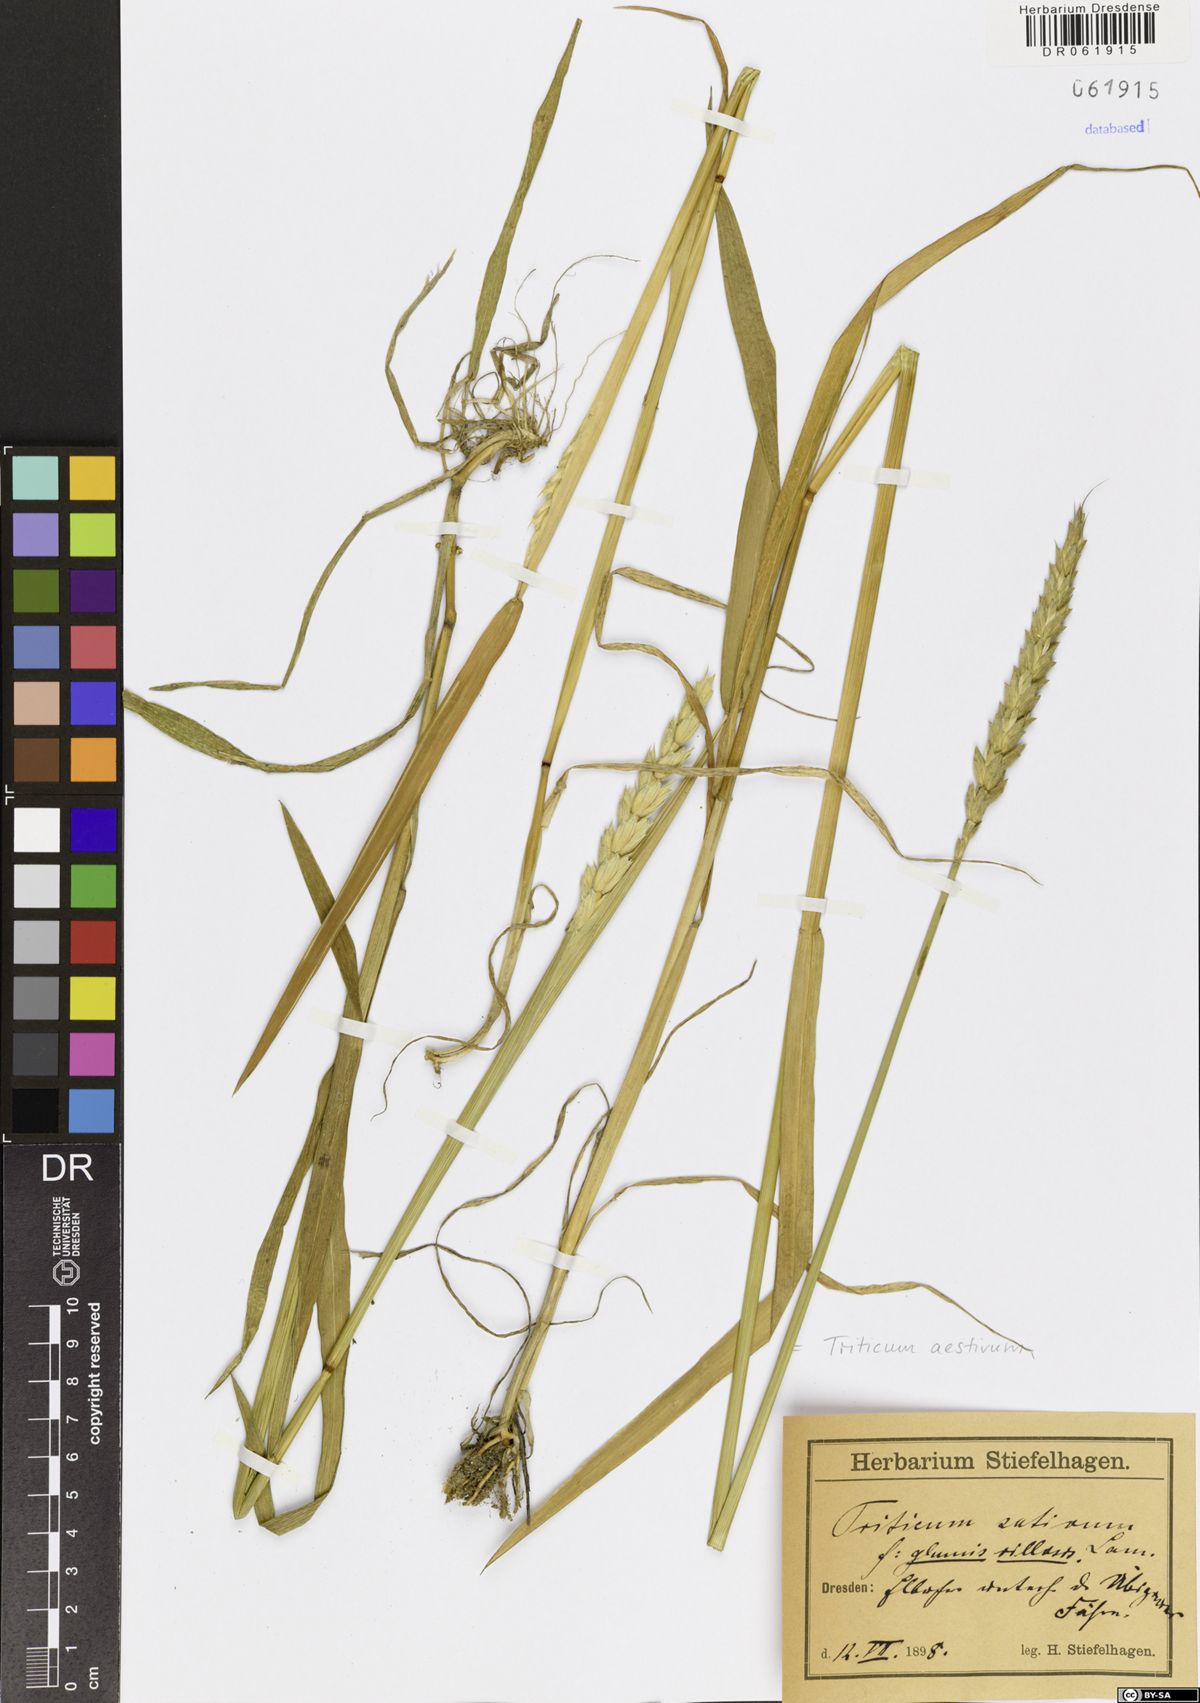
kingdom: Plantae
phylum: Tracheophyta
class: Liliopsida
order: Poales
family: Poaceae
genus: Triticum
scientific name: Triticum aestivum
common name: Common wheat
